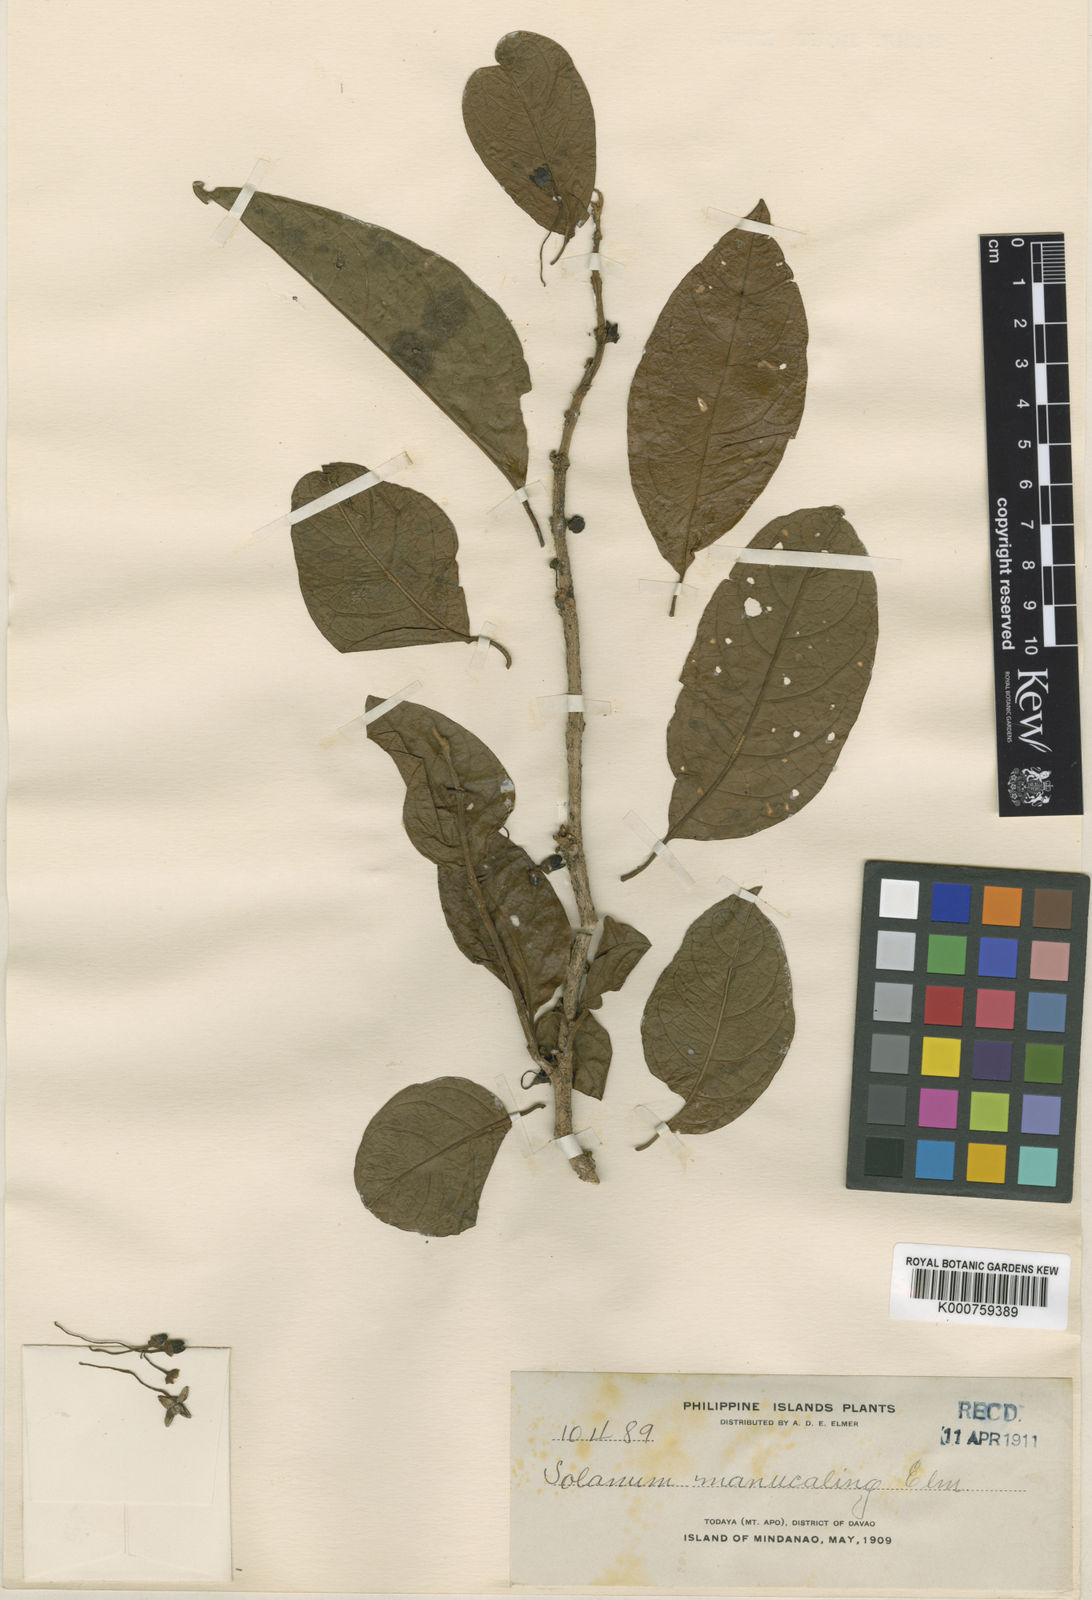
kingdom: Plantae
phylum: Tracheophyta
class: Magnoliopsida
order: Solanales
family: Solanaceae
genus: Lycianthes
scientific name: Lycianthes banahaensis
